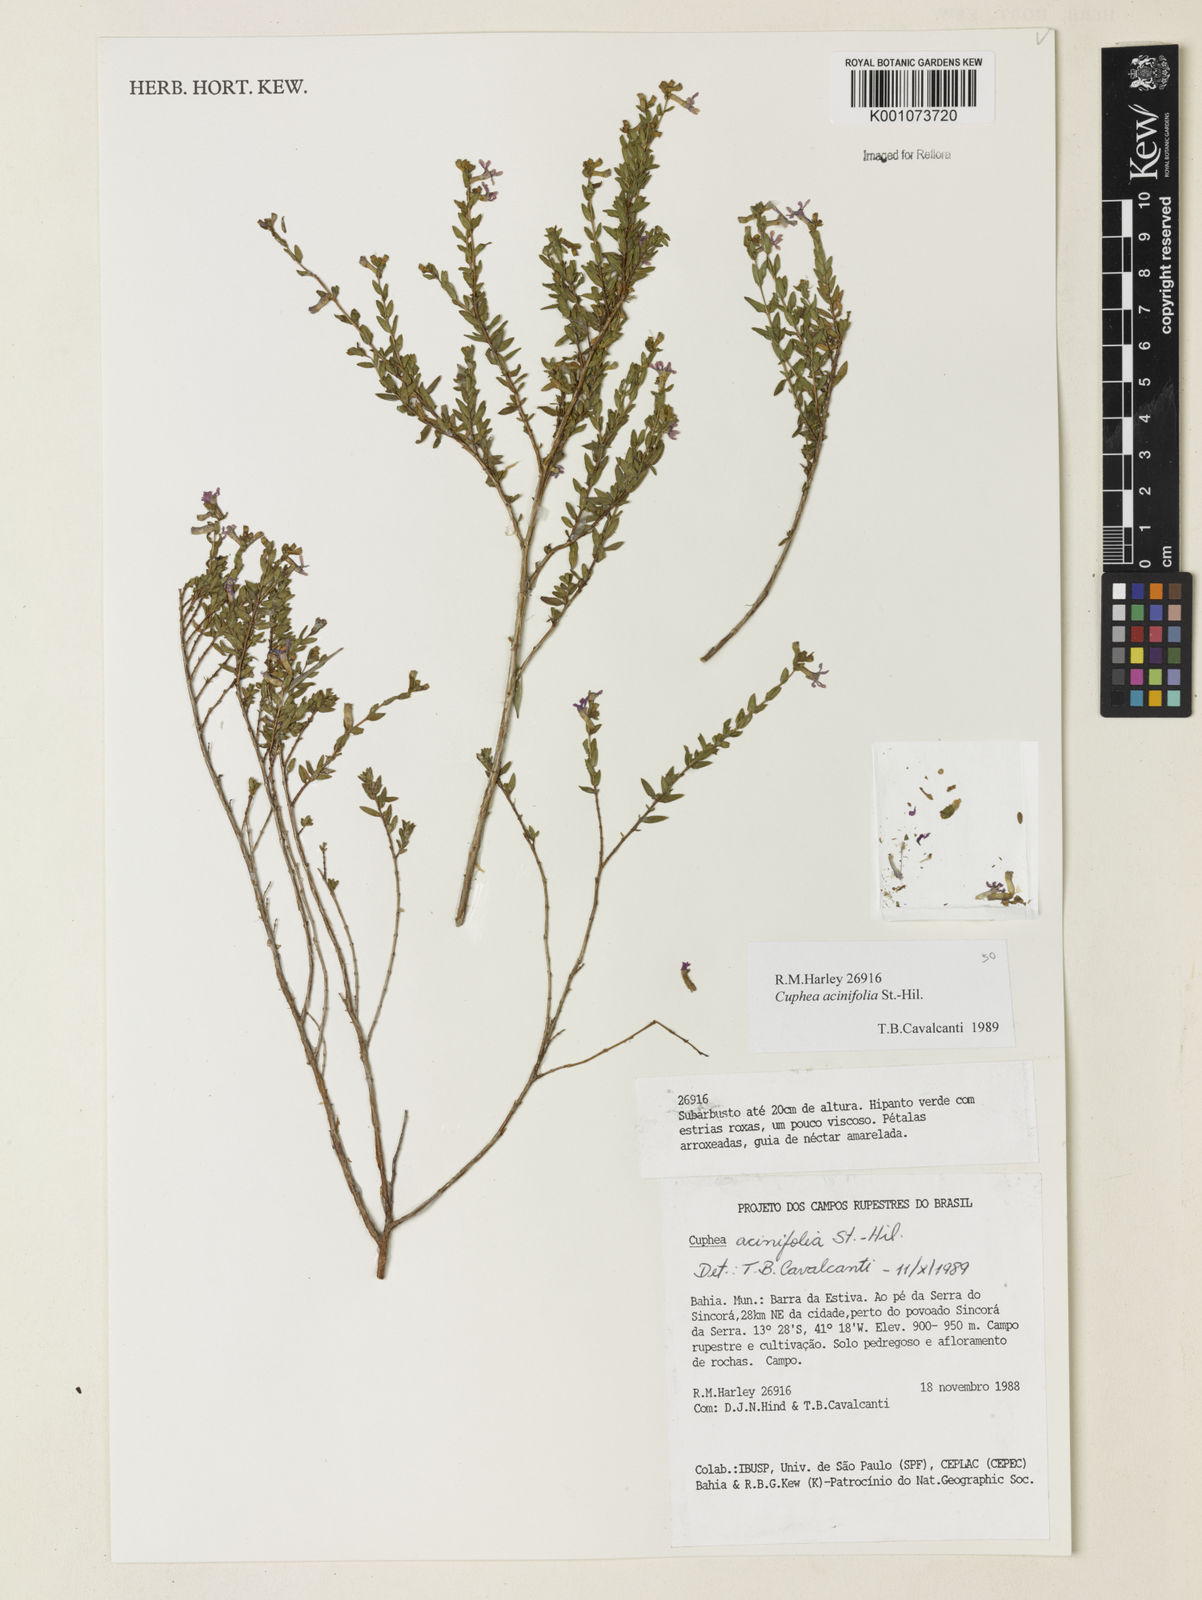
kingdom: Plantae
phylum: Tracheophyta
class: Magnoliopsida
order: Myrtales
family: Lythraceae
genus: Cuphea
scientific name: Cuphea acinifolia
